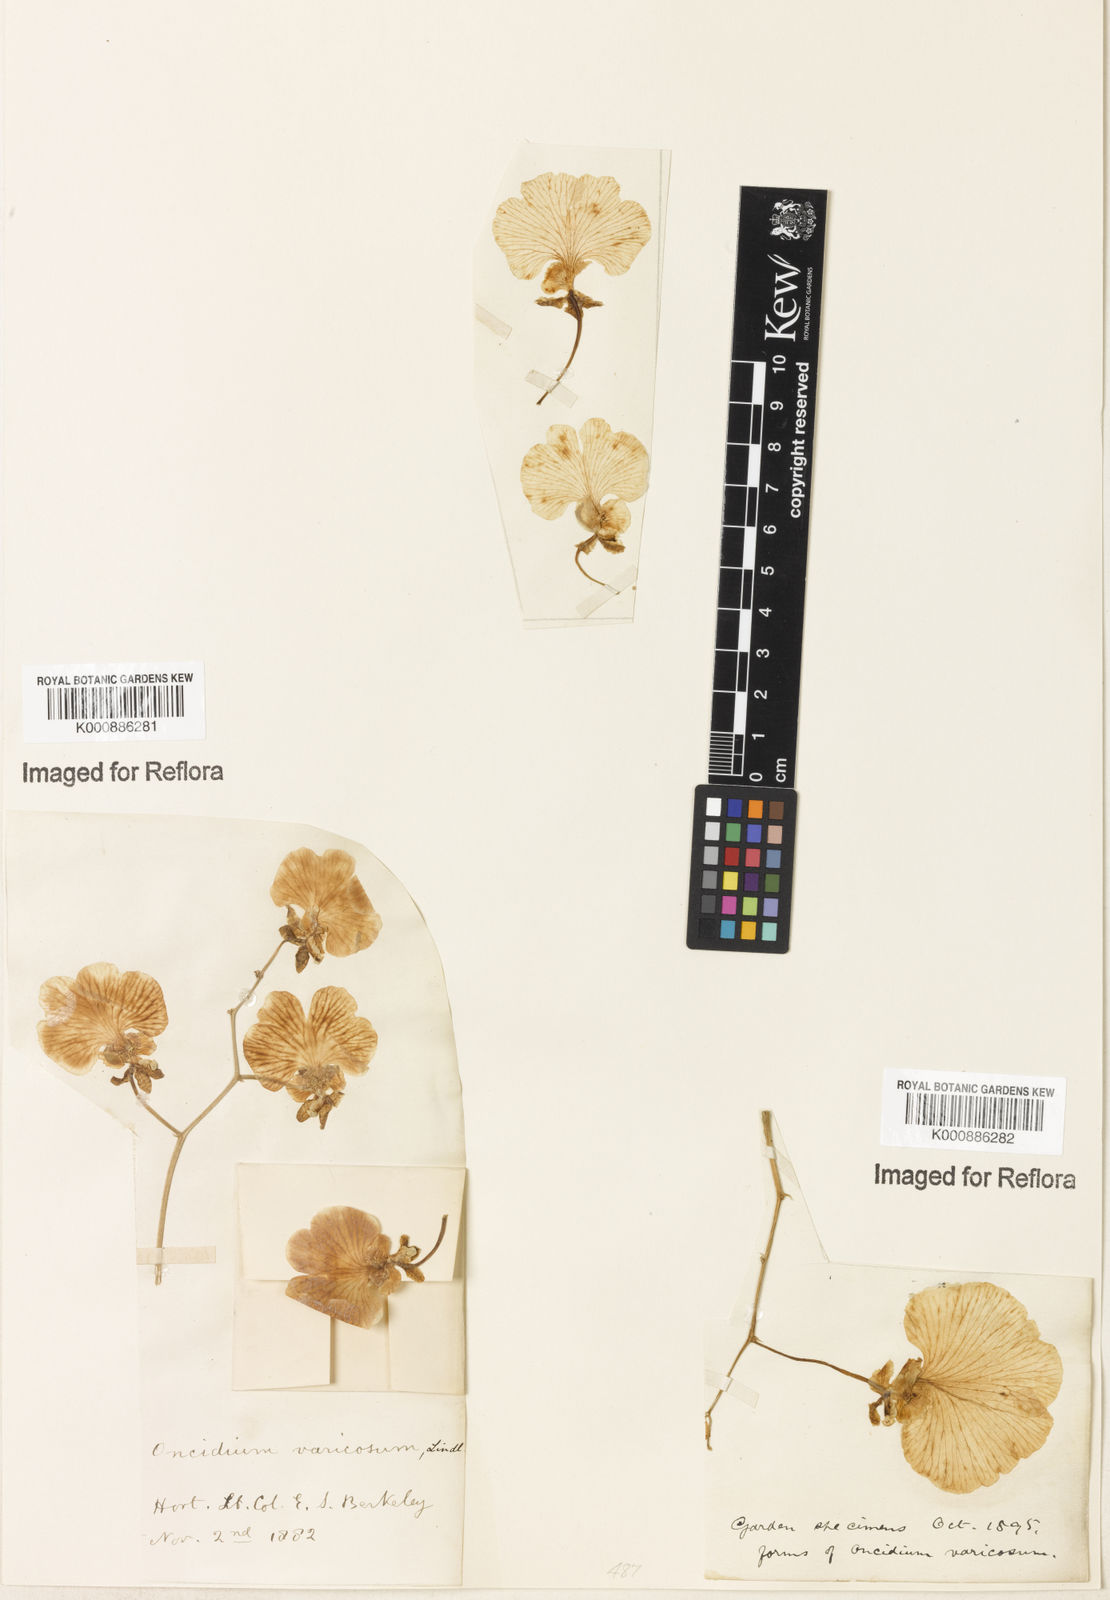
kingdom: Plantae
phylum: Tracheophyta
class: Liliopsida
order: Asparagales
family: Orchidaceae
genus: Gomesa
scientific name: Gomesa varicosa
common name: Dancing ladies
